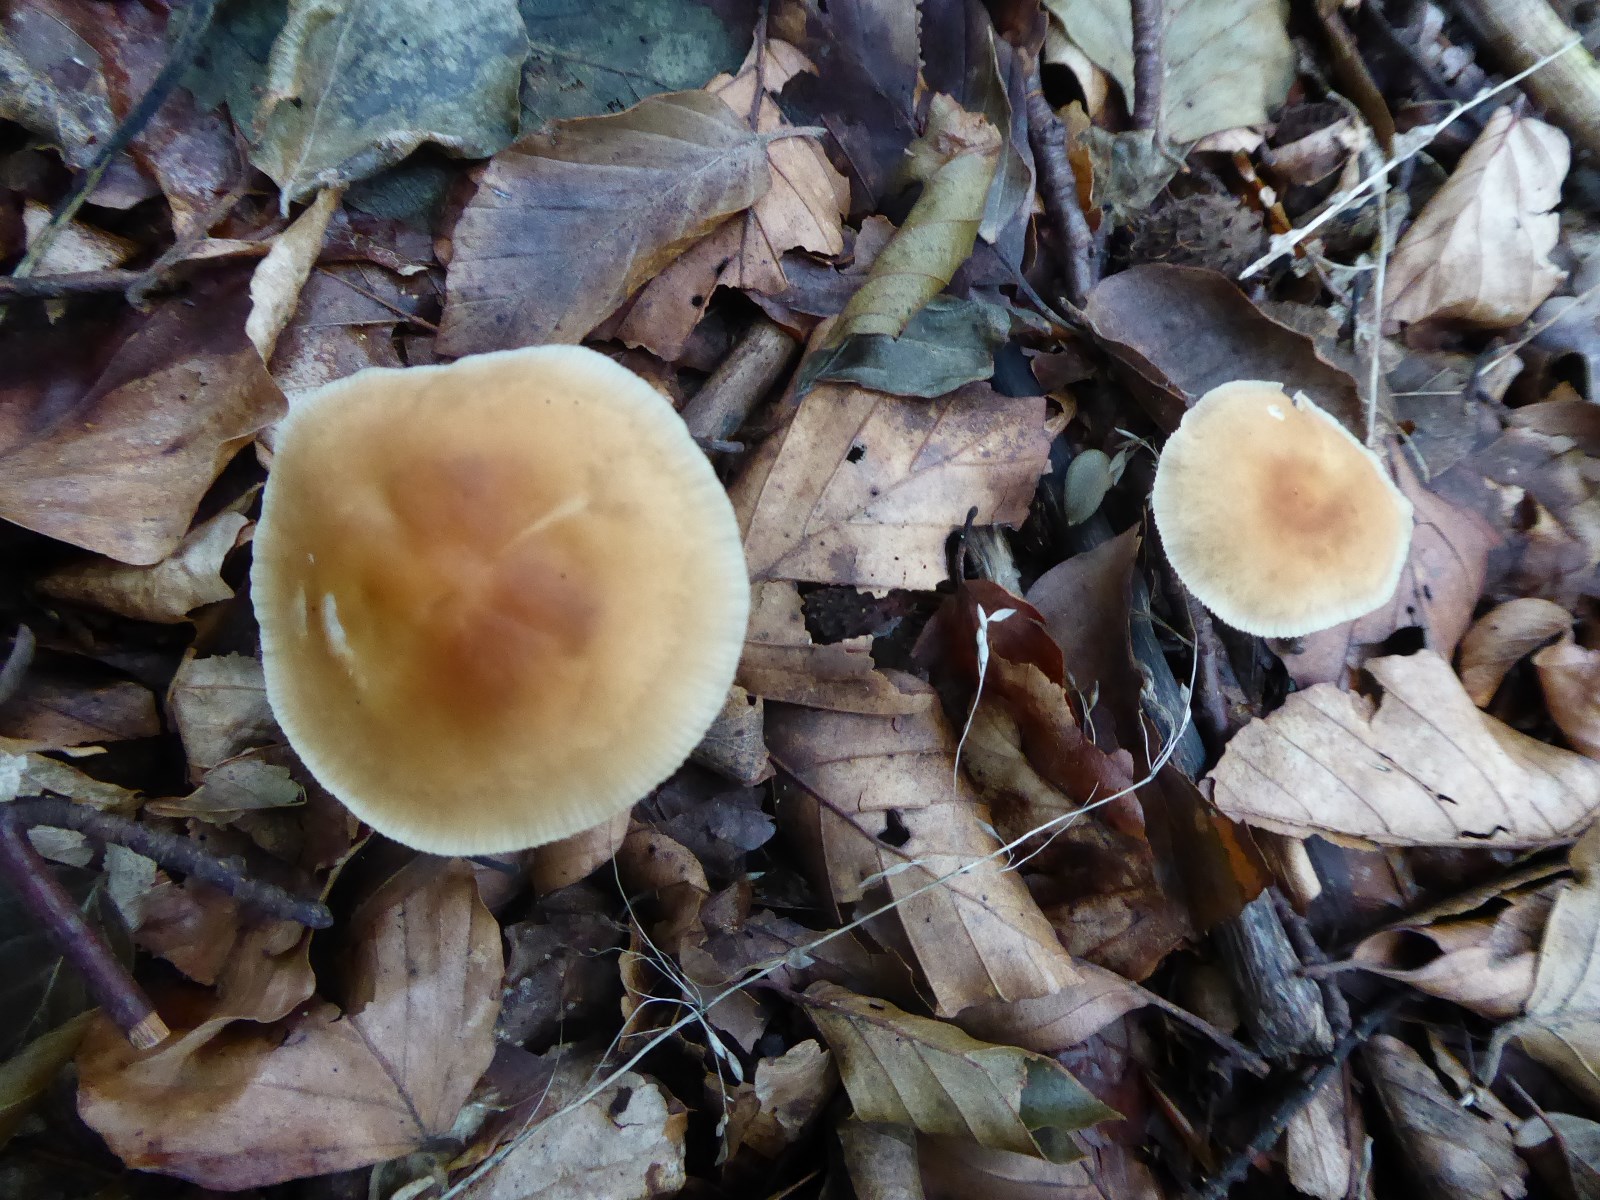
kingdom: Fungi
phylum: Basidiomycota
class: Agaricomycetes
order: Agaricales
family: Omphalotaceae
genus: Gymnopus
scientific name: Gymnopus
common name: fladhat
